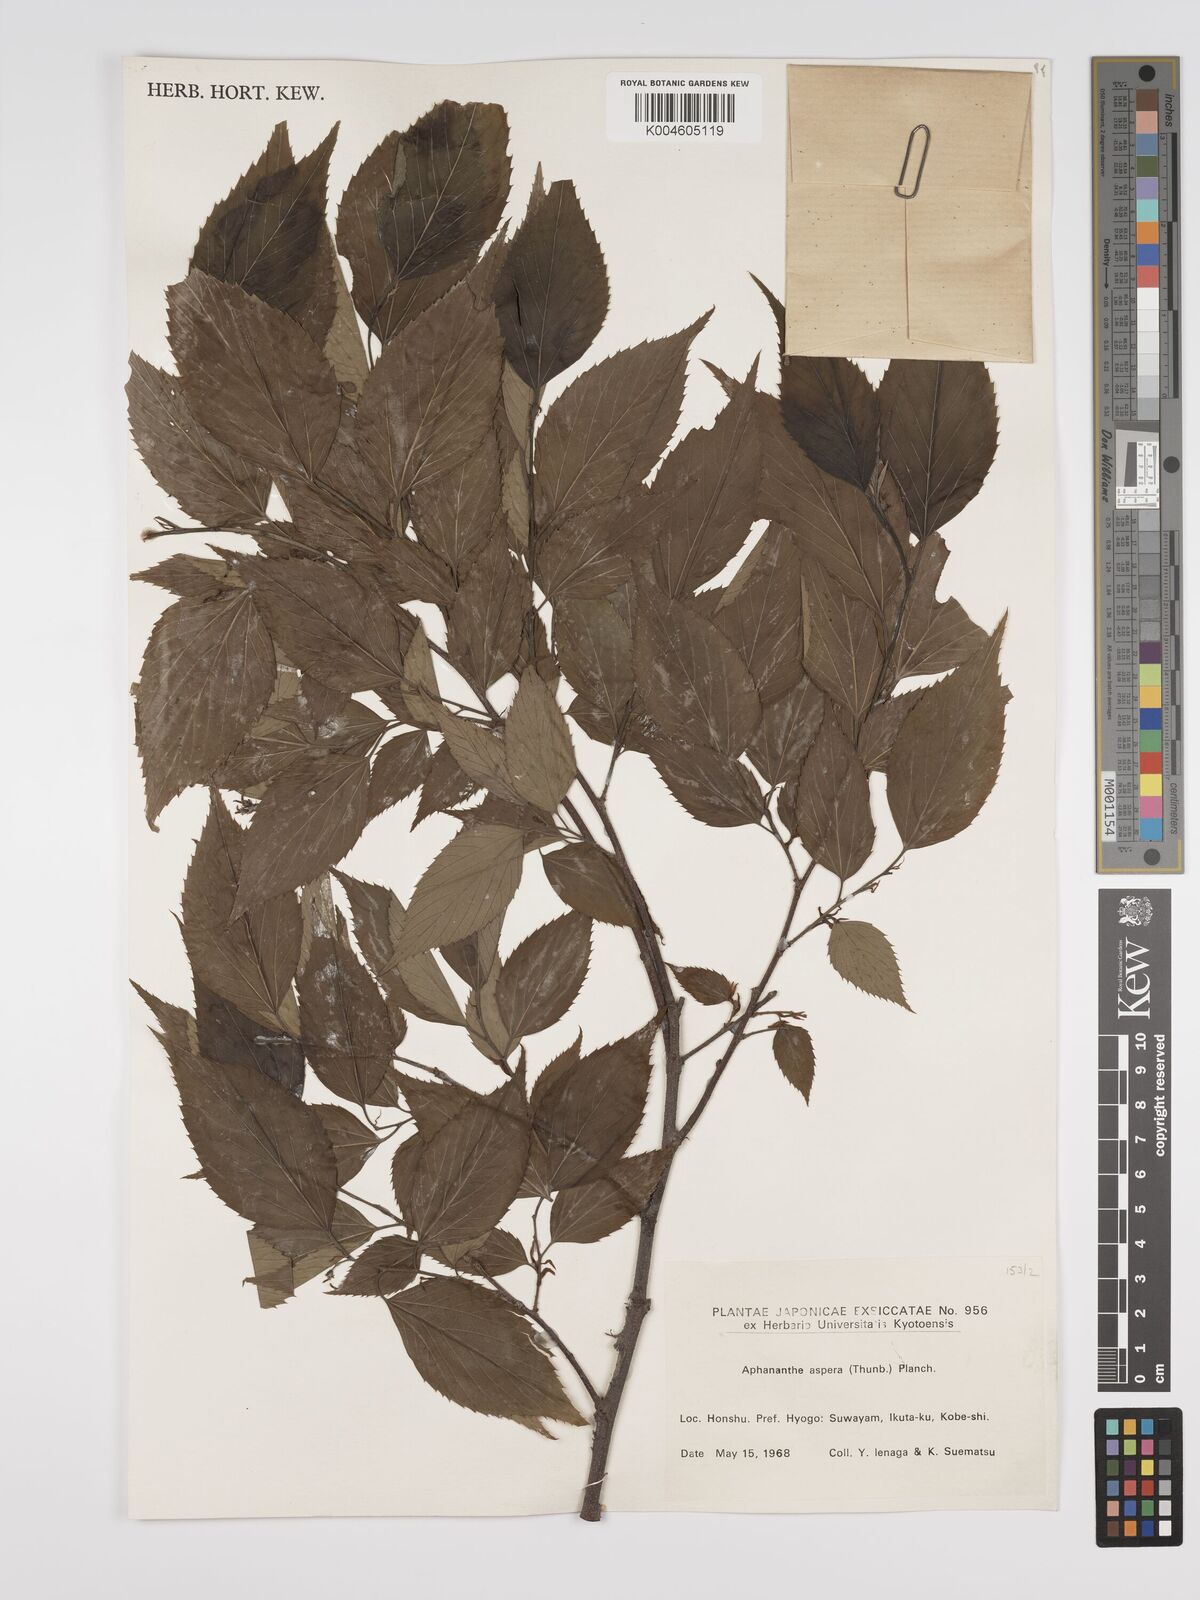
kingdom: Plantae
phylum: Tracheophyta
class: Magnoliopsida
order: Rosales
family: Cannabaceae
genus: Aphananthe
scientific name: Aphananthe aspera
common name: Mukutree
